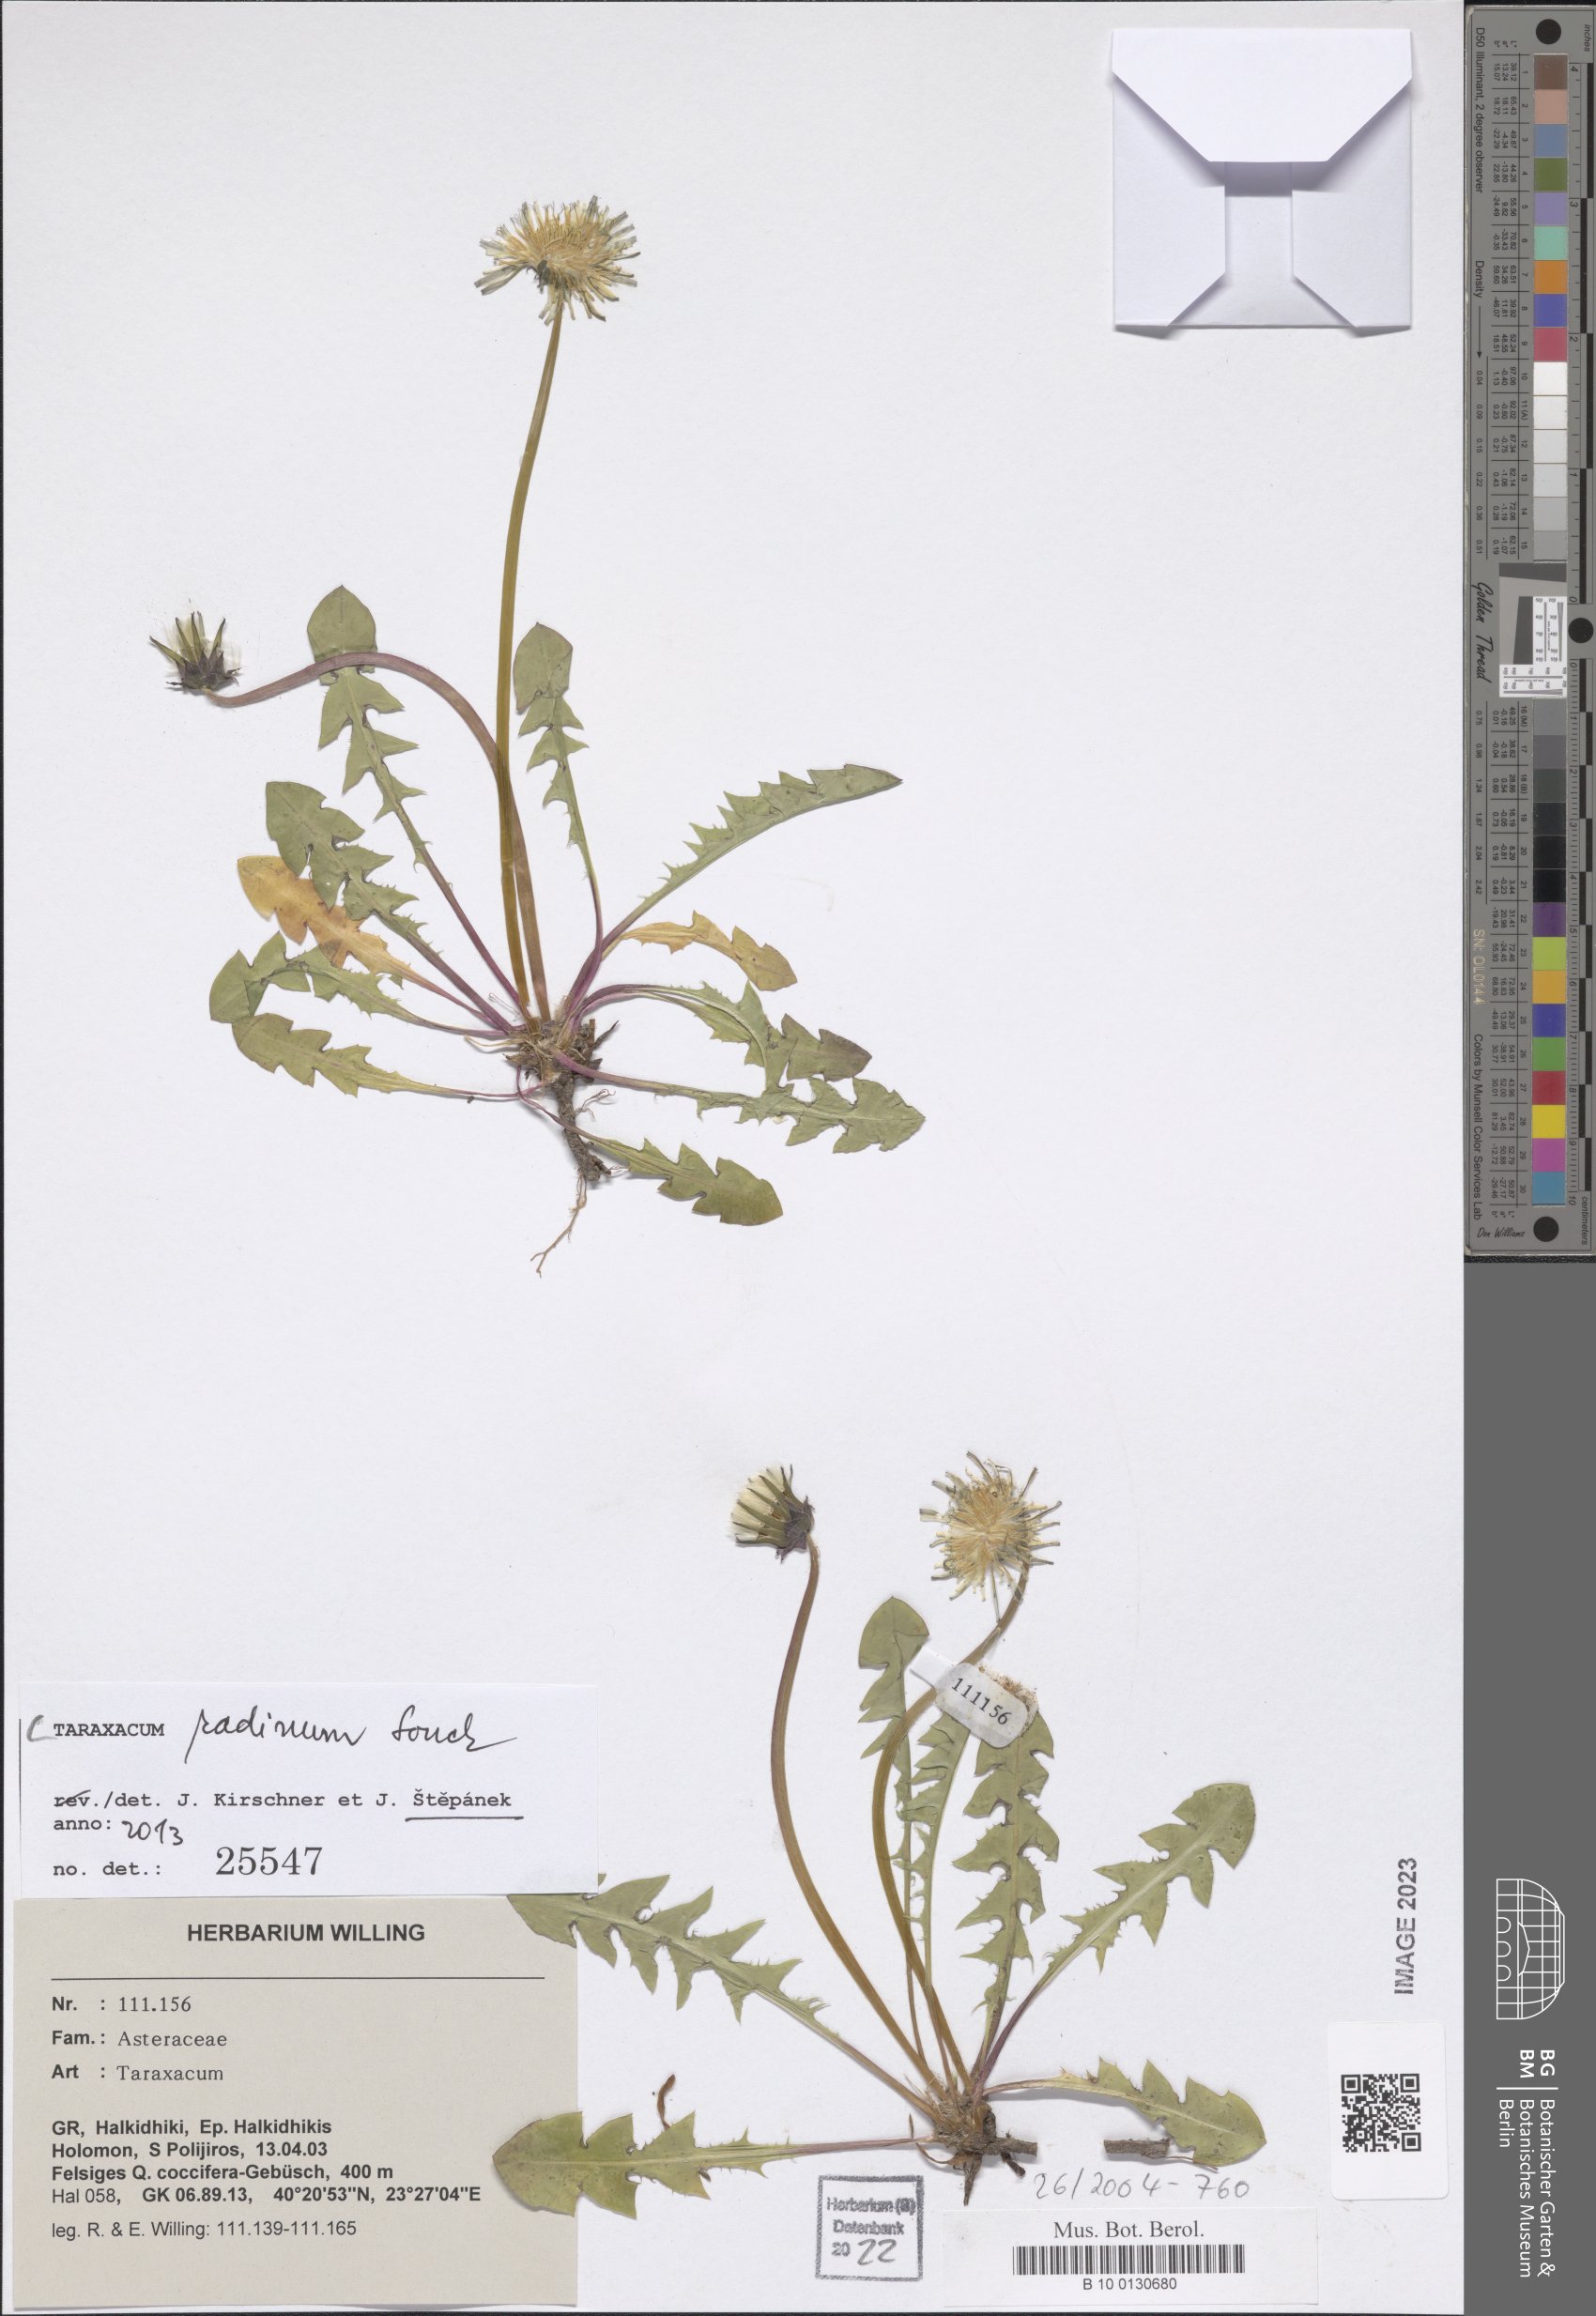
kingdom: Plantae
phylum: Tracheophyta
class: Magnoliopsida
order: Asterales
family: Asteraceae
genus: Taraxacum
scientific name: Taraxacum radinum
